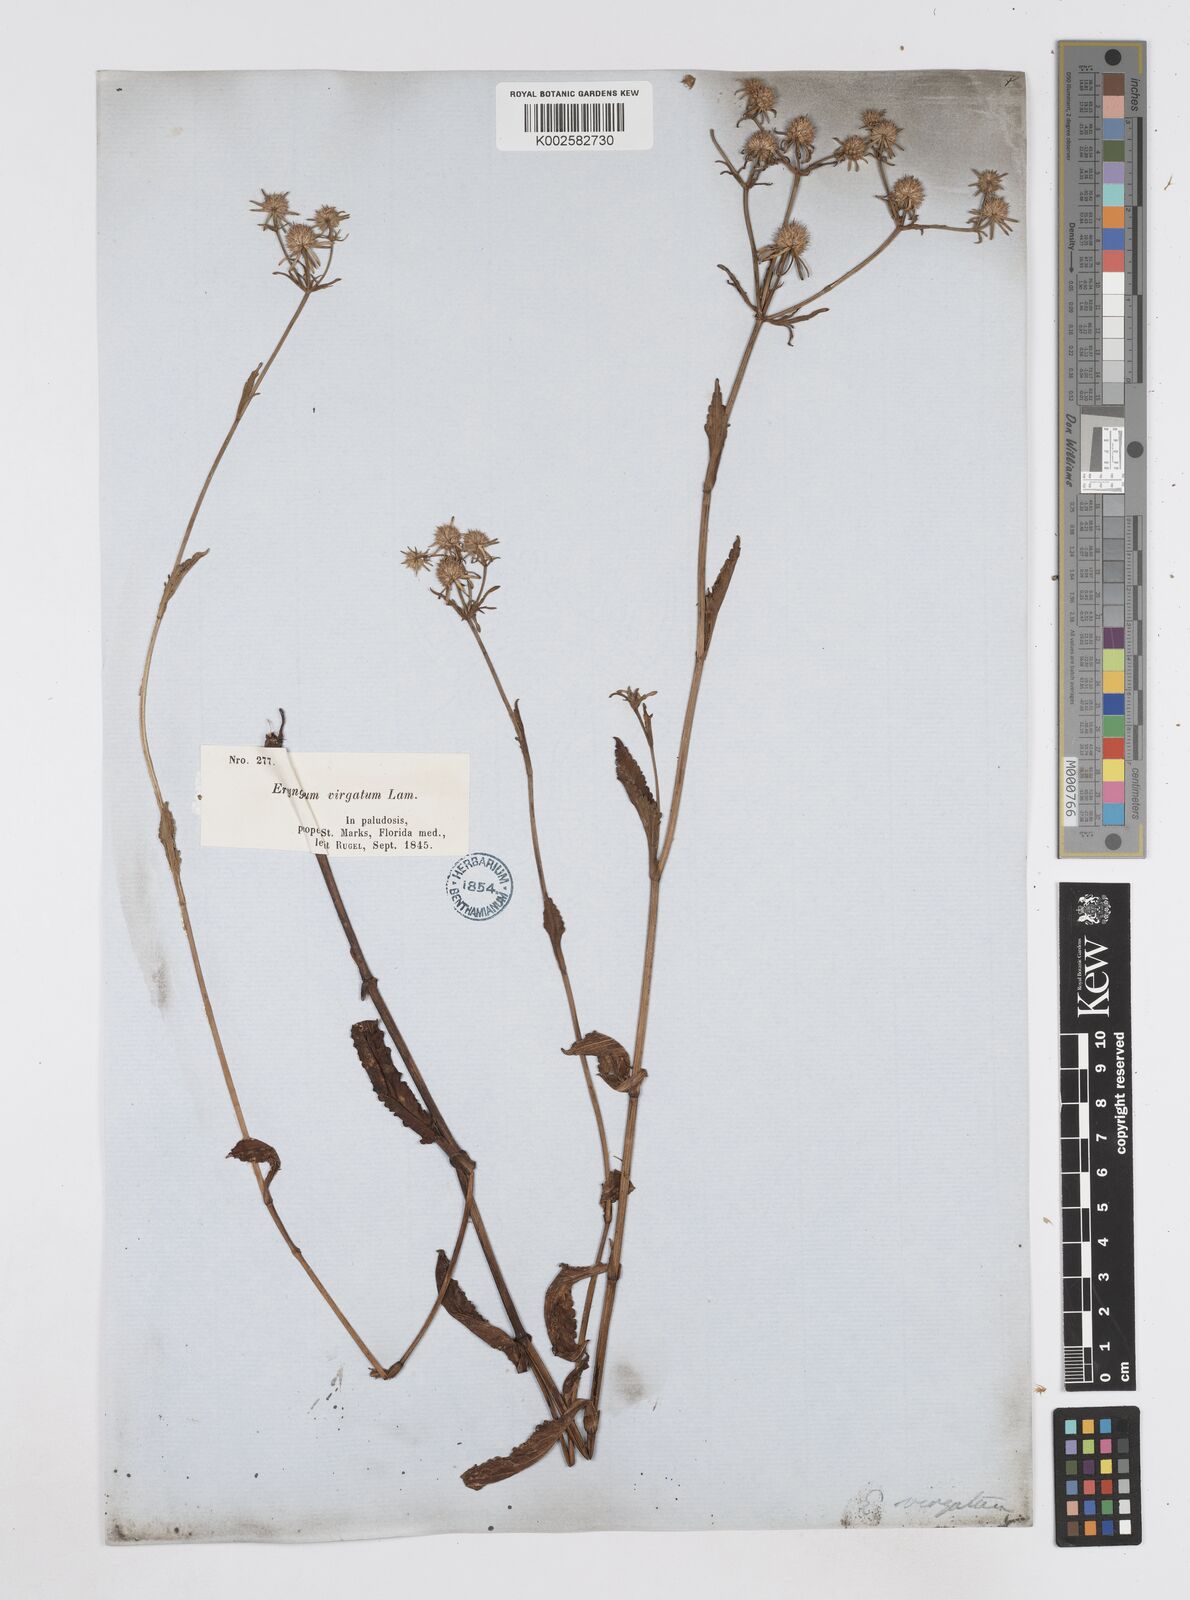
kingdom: Plantae
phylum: Tracheophyta
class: Magnoliopsida
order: Apiales
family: Apiaceae
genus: Eryngium
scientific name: Eryngium integrifolium
